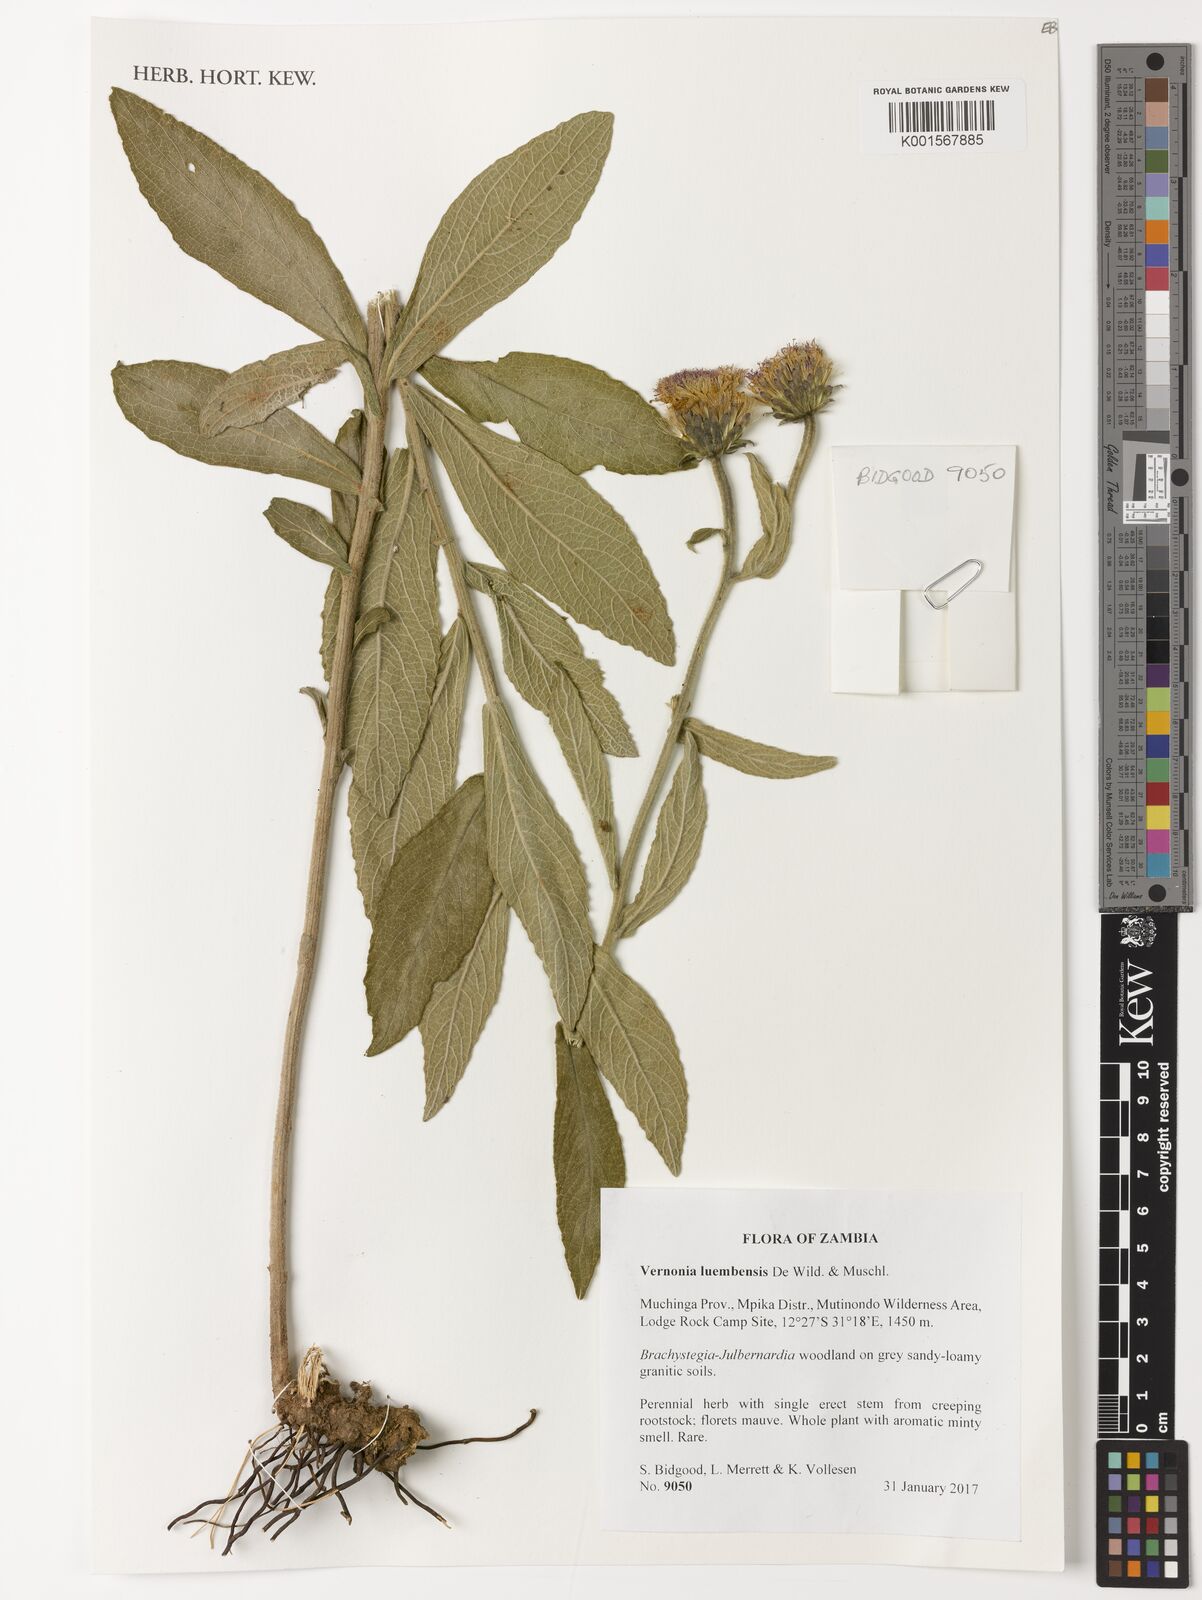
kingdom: Plantae
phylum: Tracheophyta
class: Magnoliopsida
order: Asterales
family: Asteraceae
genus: Vernonella
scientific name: Vernonella luembensis
